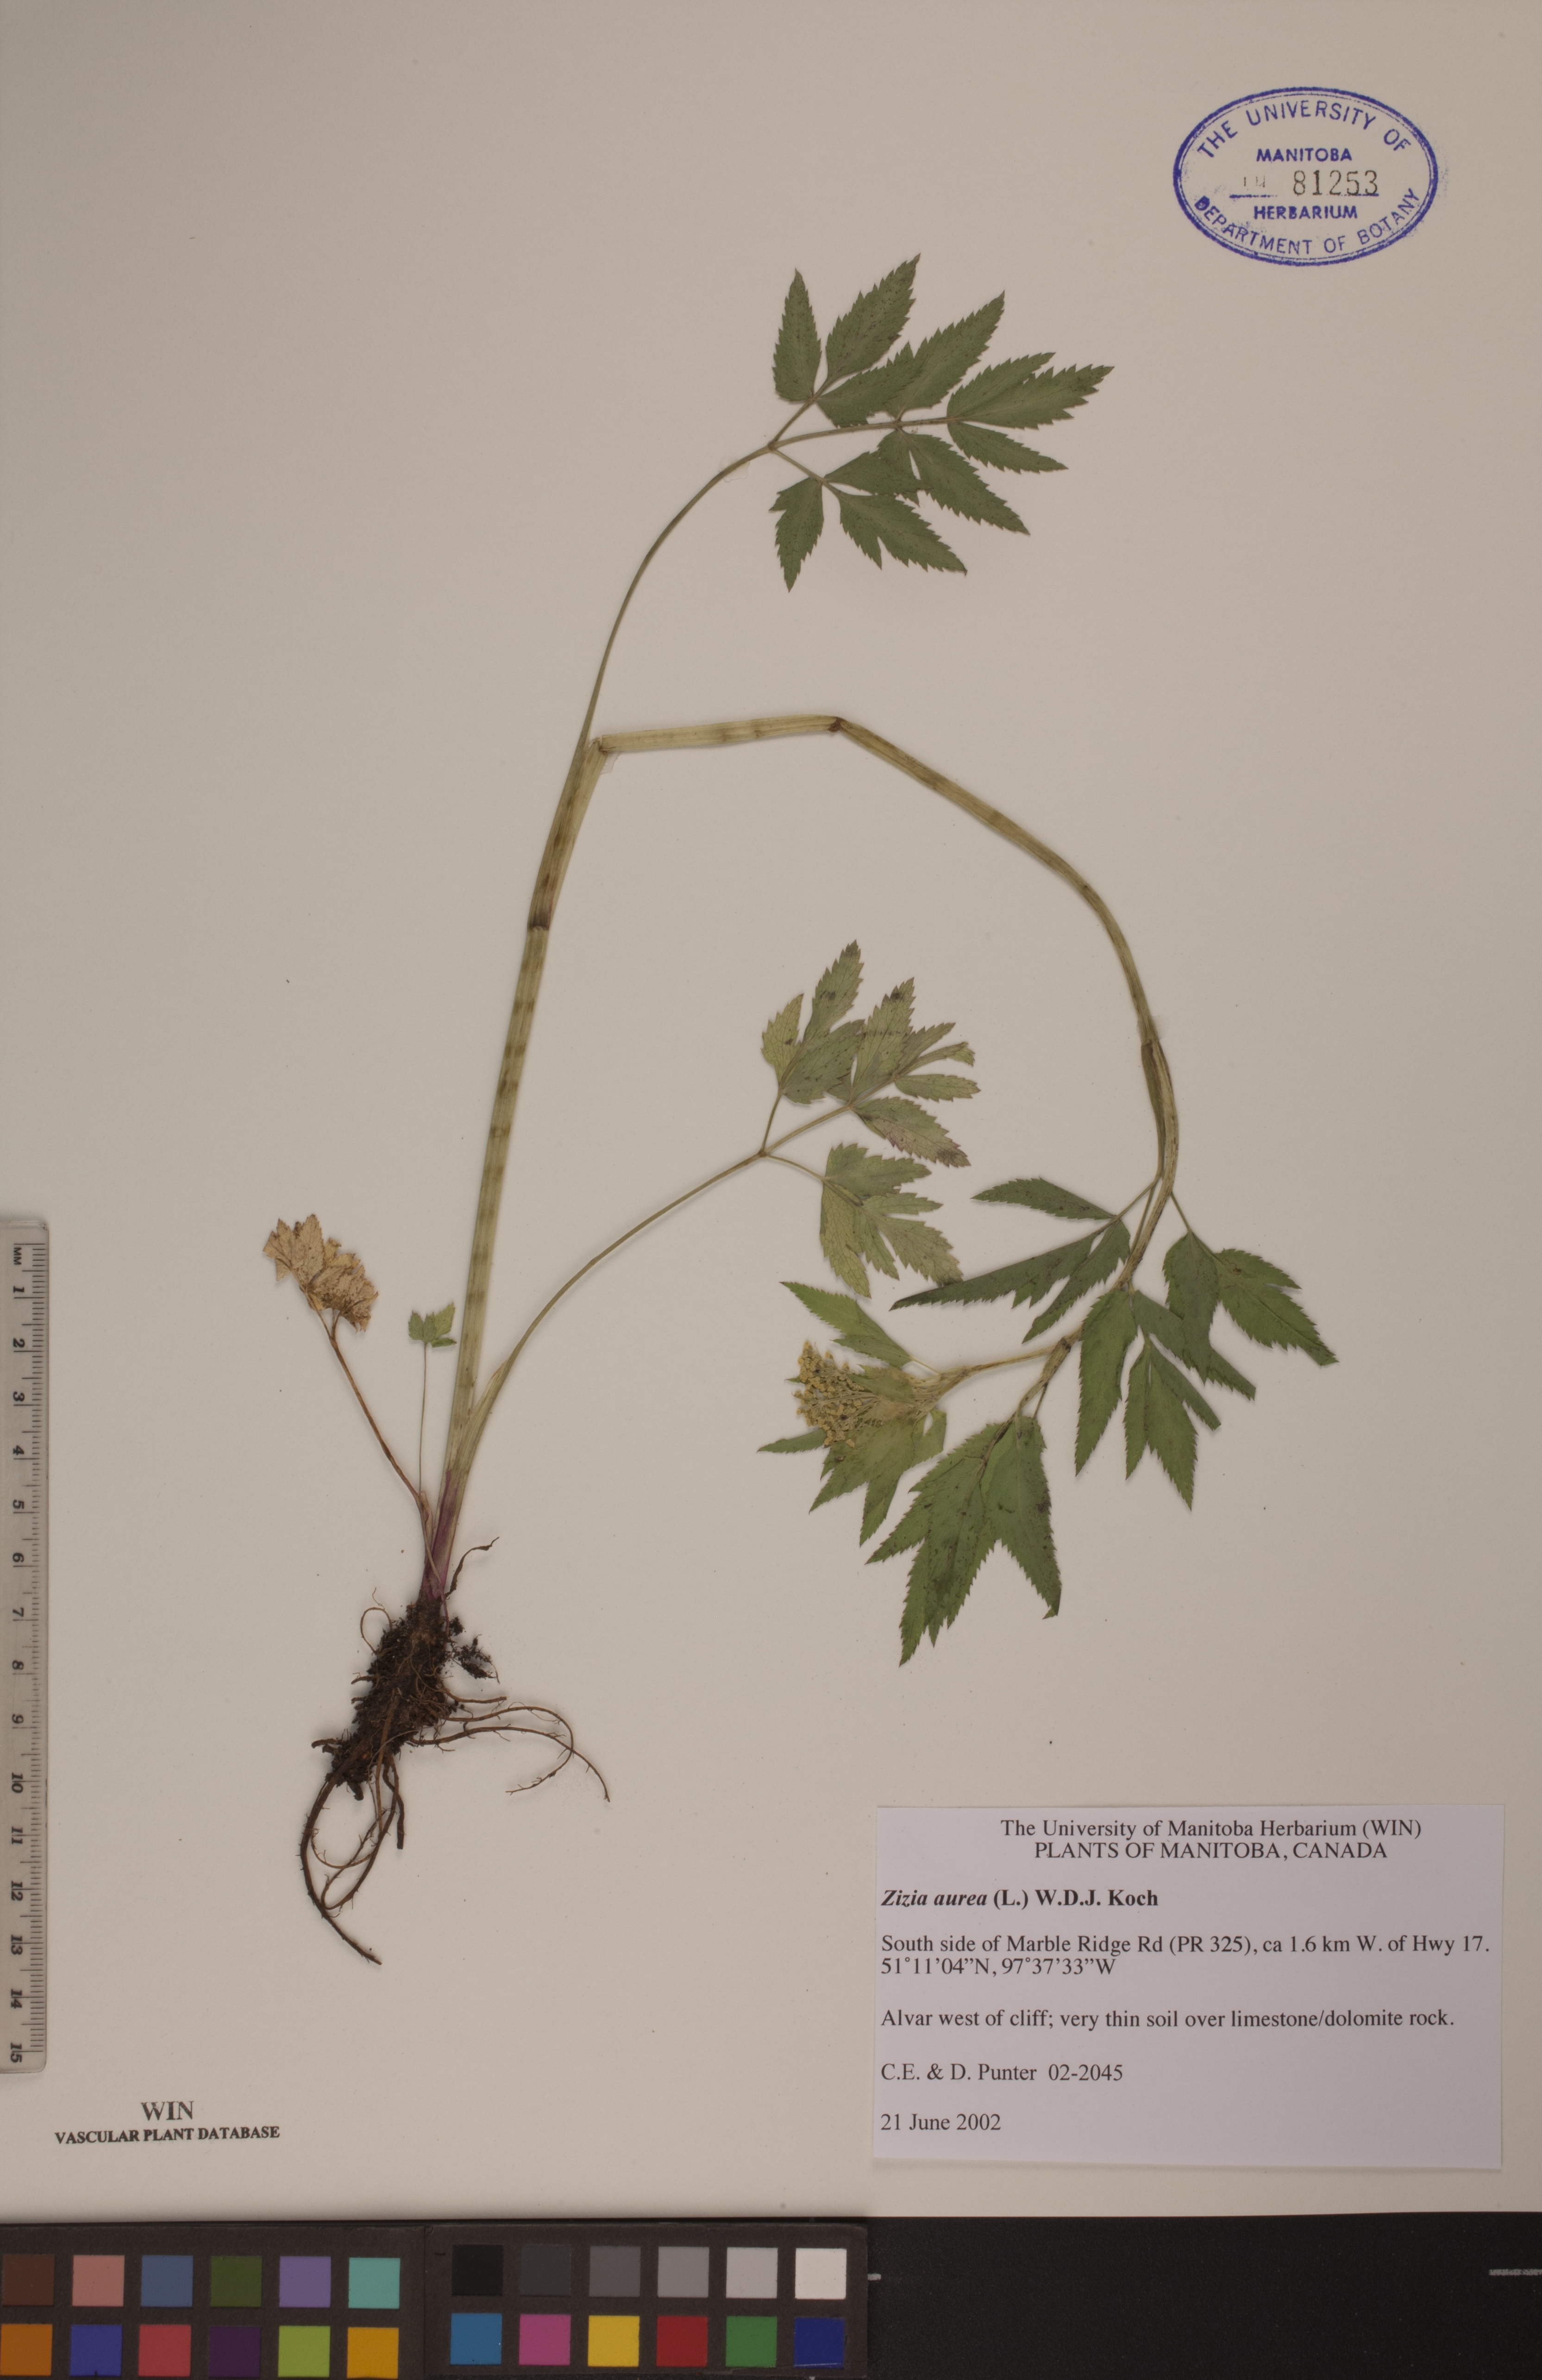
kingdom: Plantae
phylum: Tracheophyta
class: Magnoliopsida
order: Apiales
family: Apiaceae
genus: Zizia
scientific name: Zizia aurea
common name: Golden alexanders
